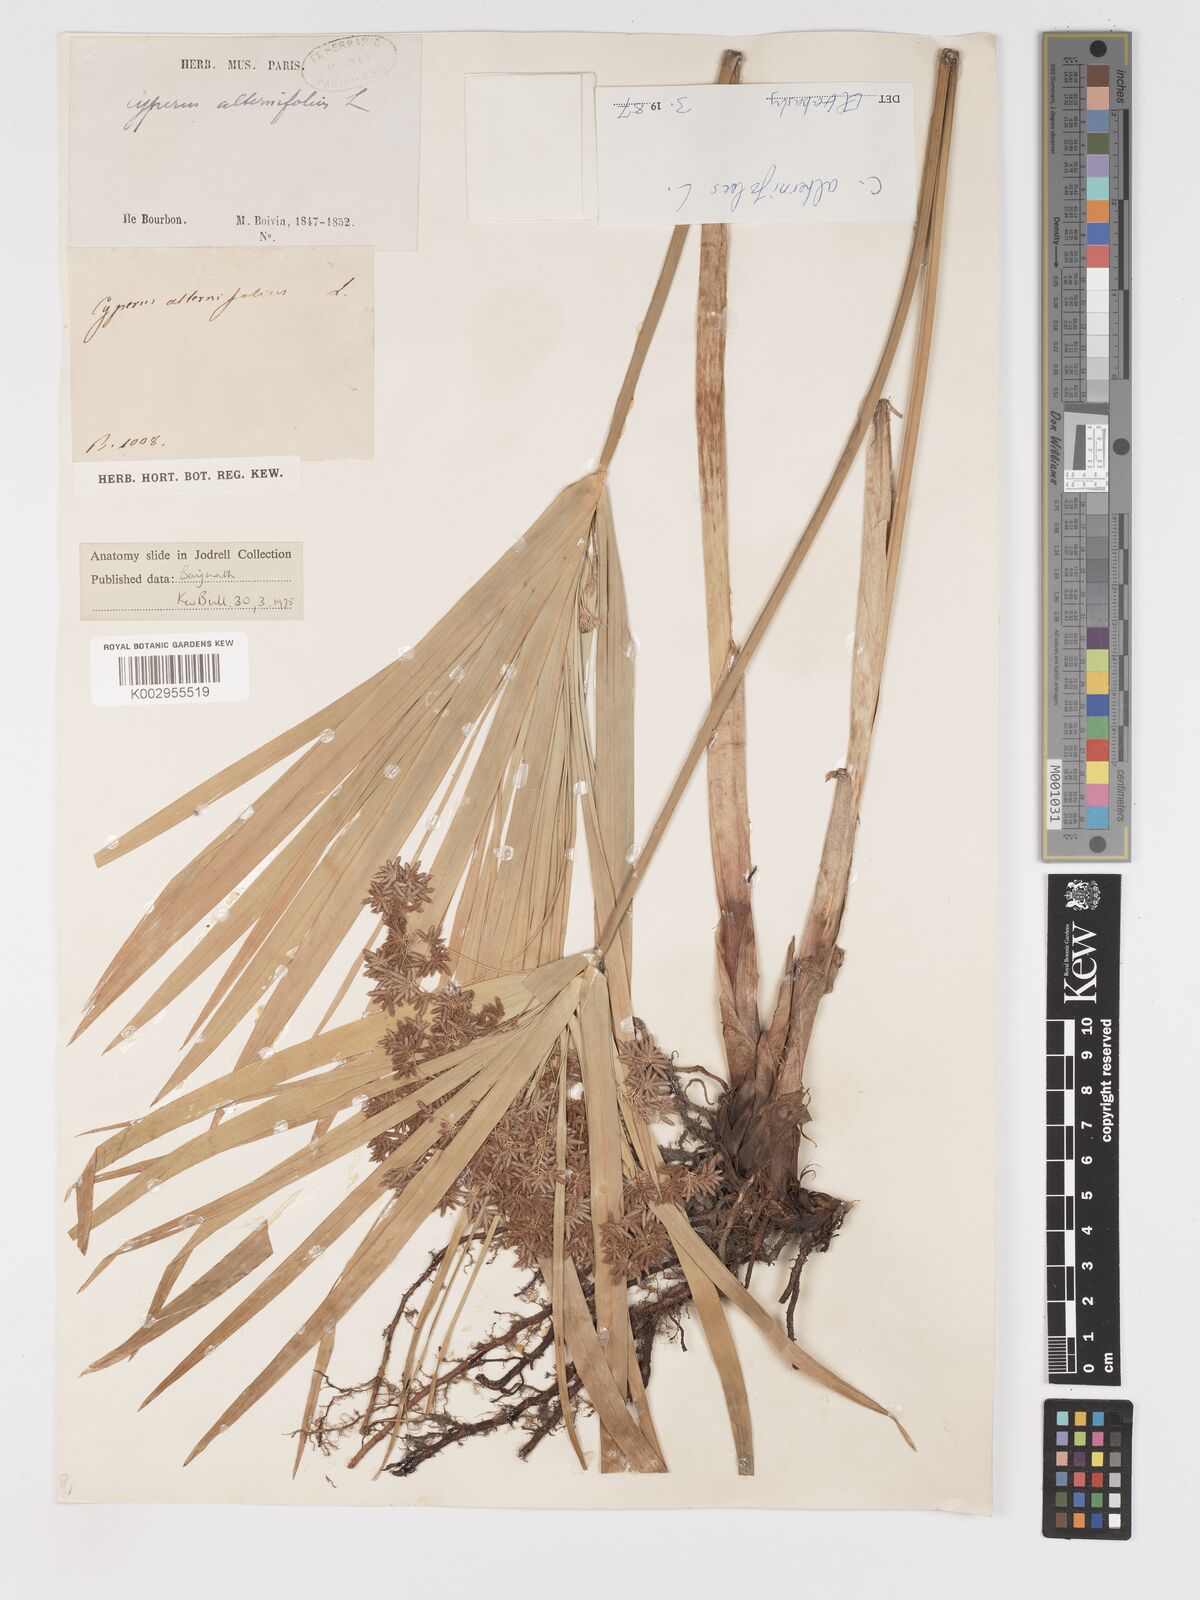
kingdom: Plantae
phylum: Tracheophyta
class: Liliopsida
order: Poales
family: Cyperaceae
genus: Cyperus
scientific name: Cyperus alternifolius
